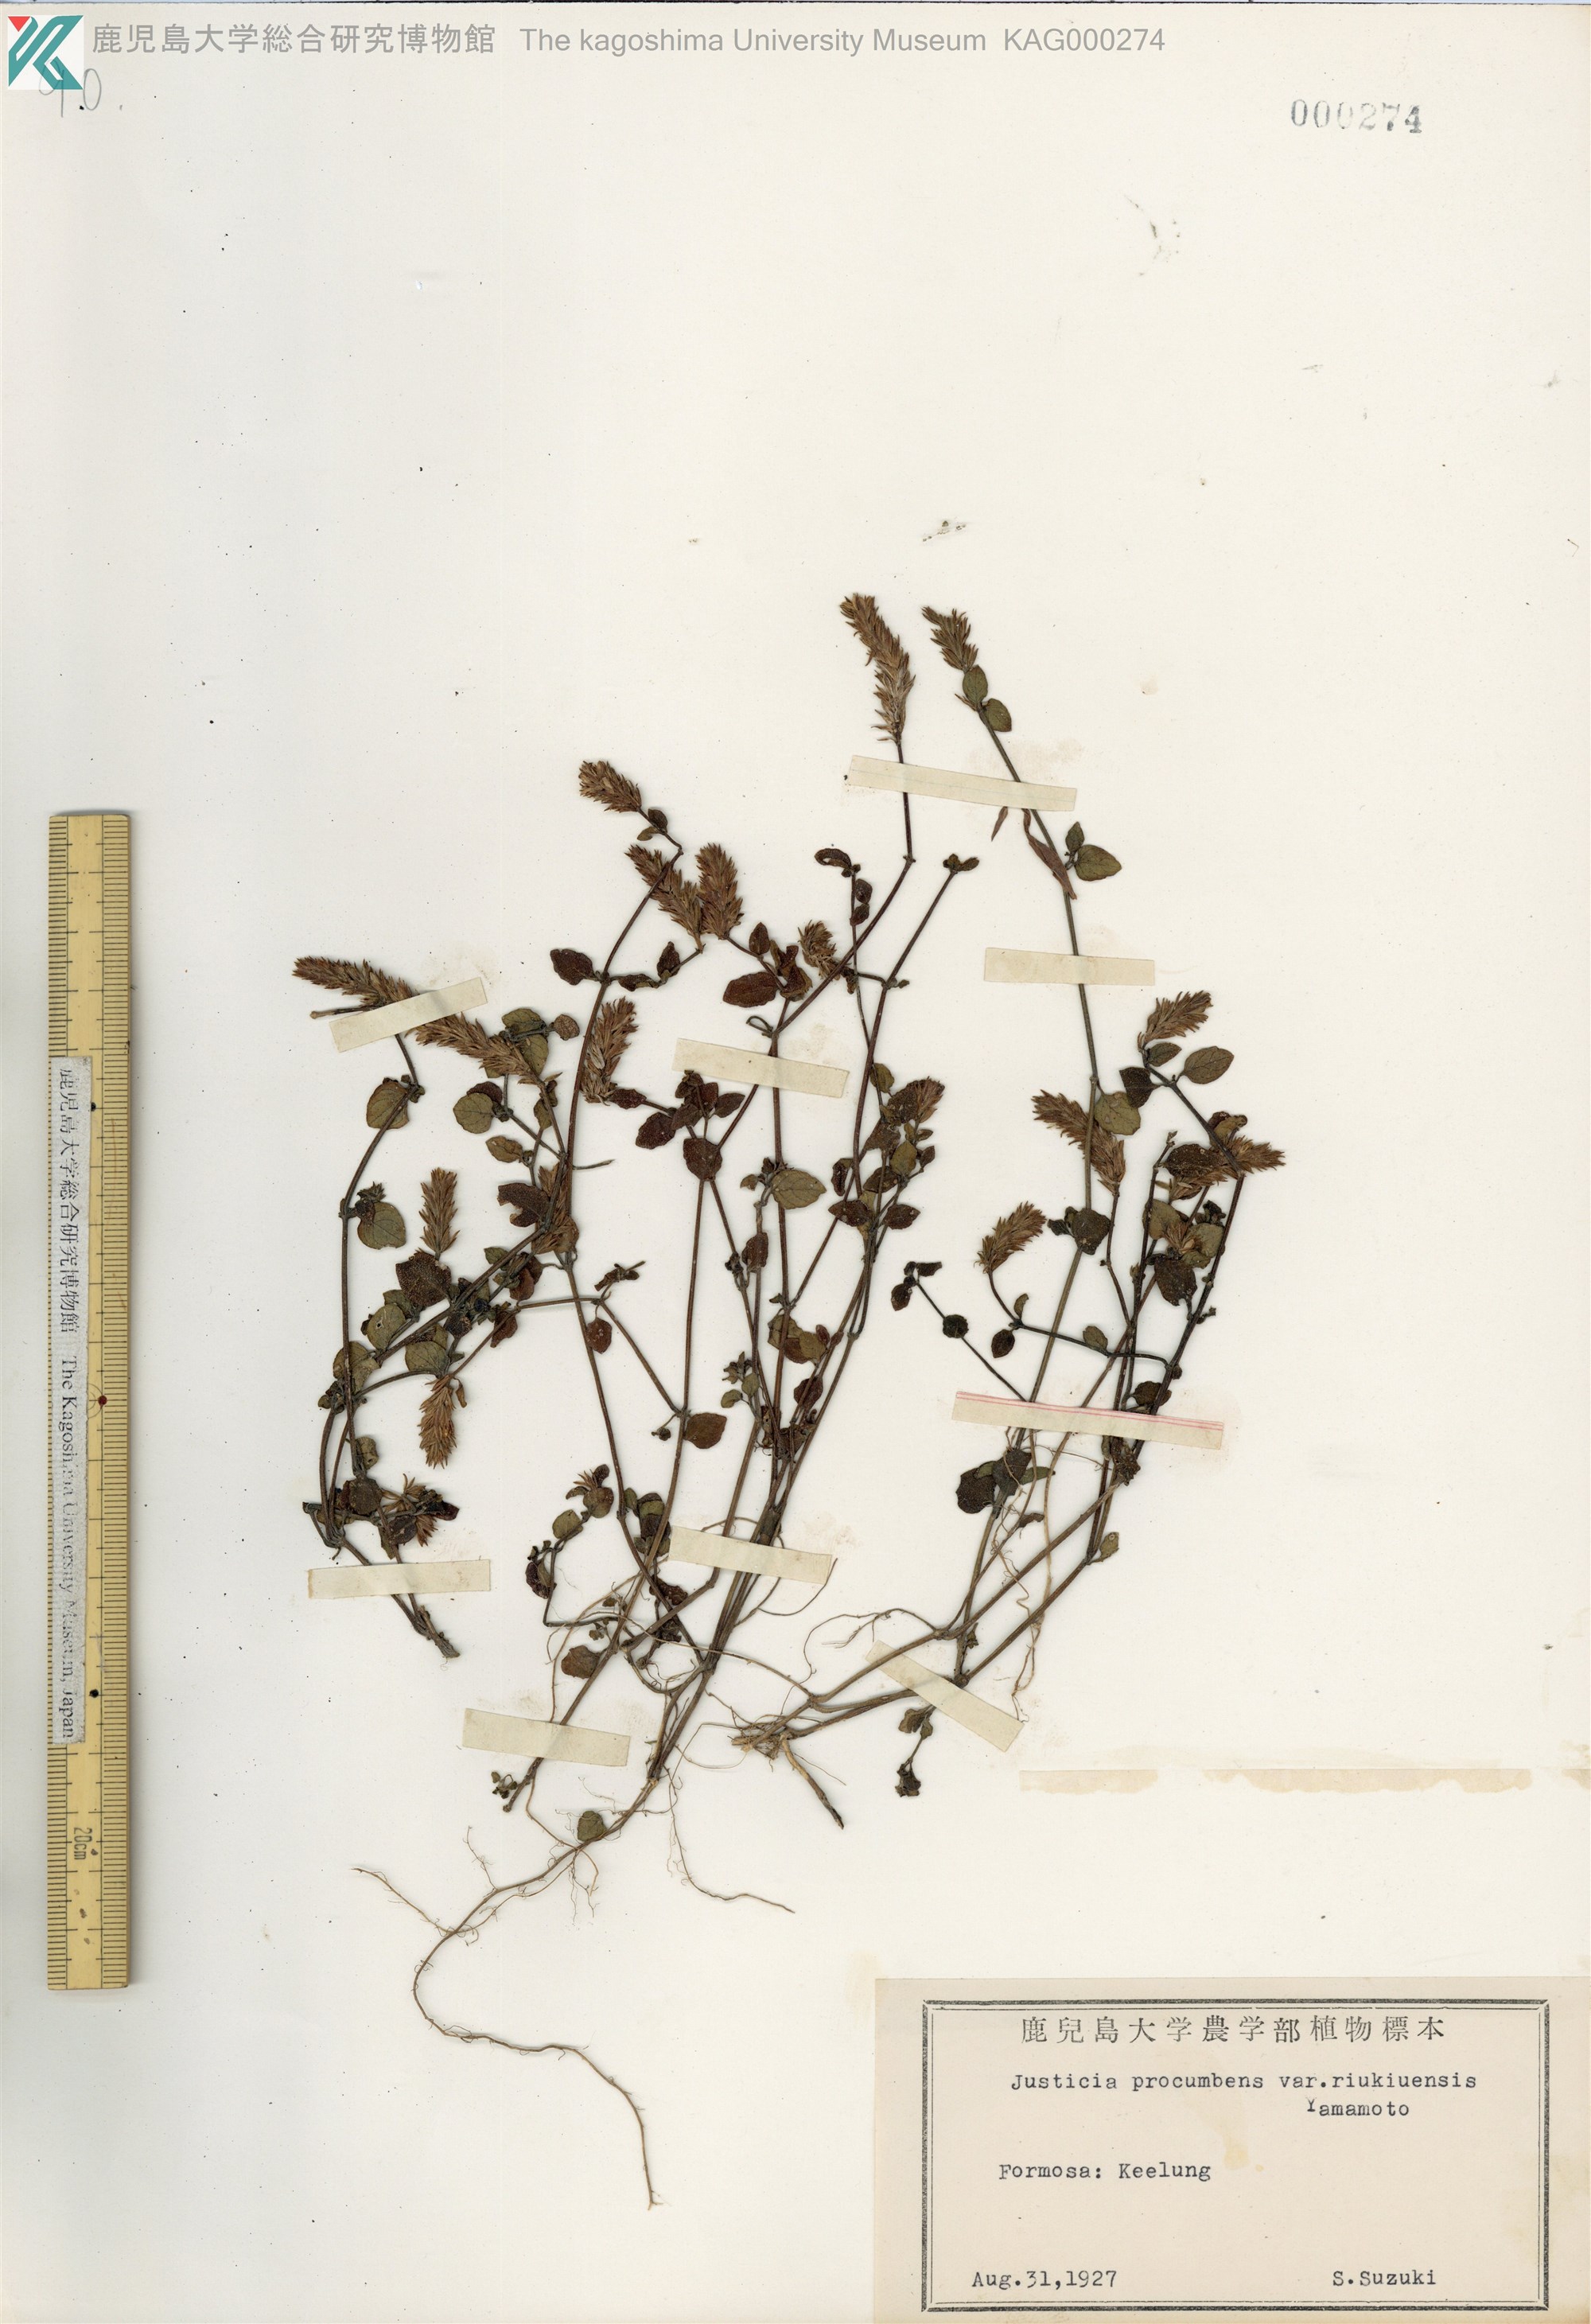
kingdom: Plantae
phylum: Tracheophyta
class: Magnoliopsida
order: Lamiales
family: Acanthaceae
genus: Rostellularia
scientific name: Rostellularia procumbens
